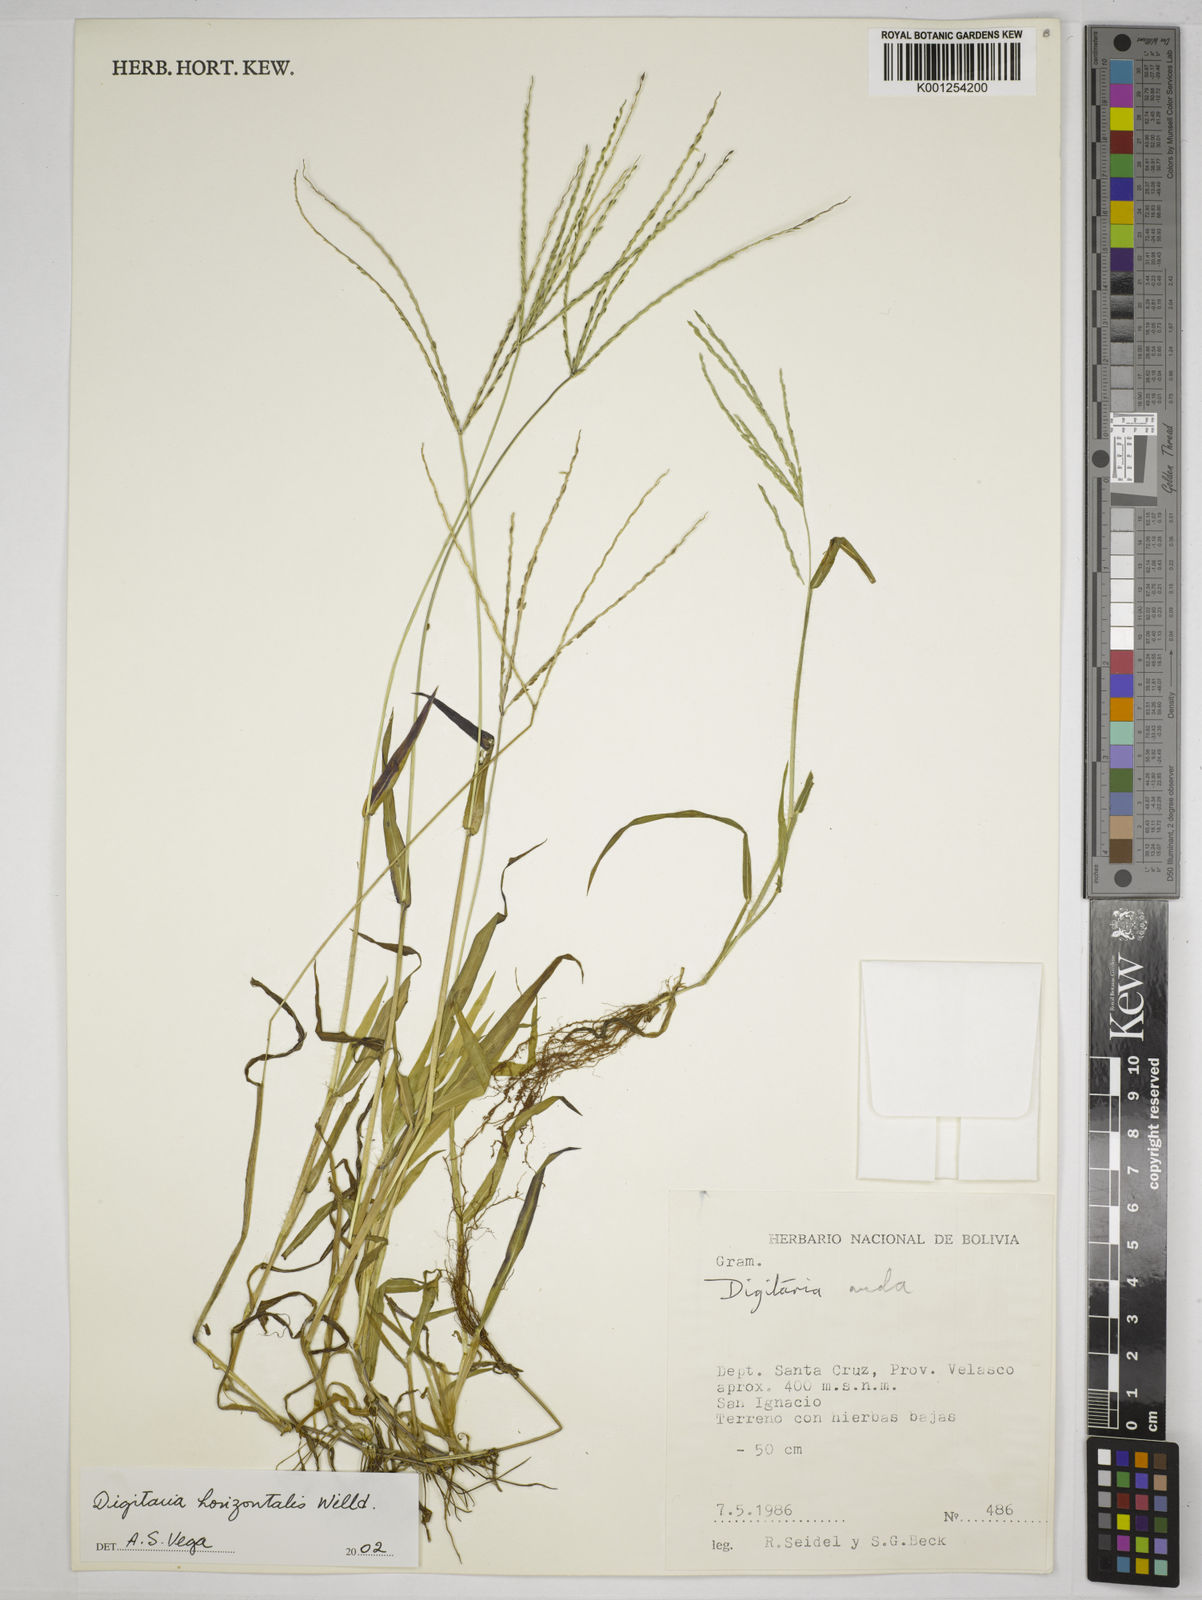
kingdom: Plantae
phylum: Tracheophyta
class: Liliopsida
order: Poales
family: Poaceae
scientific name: Poaceae
